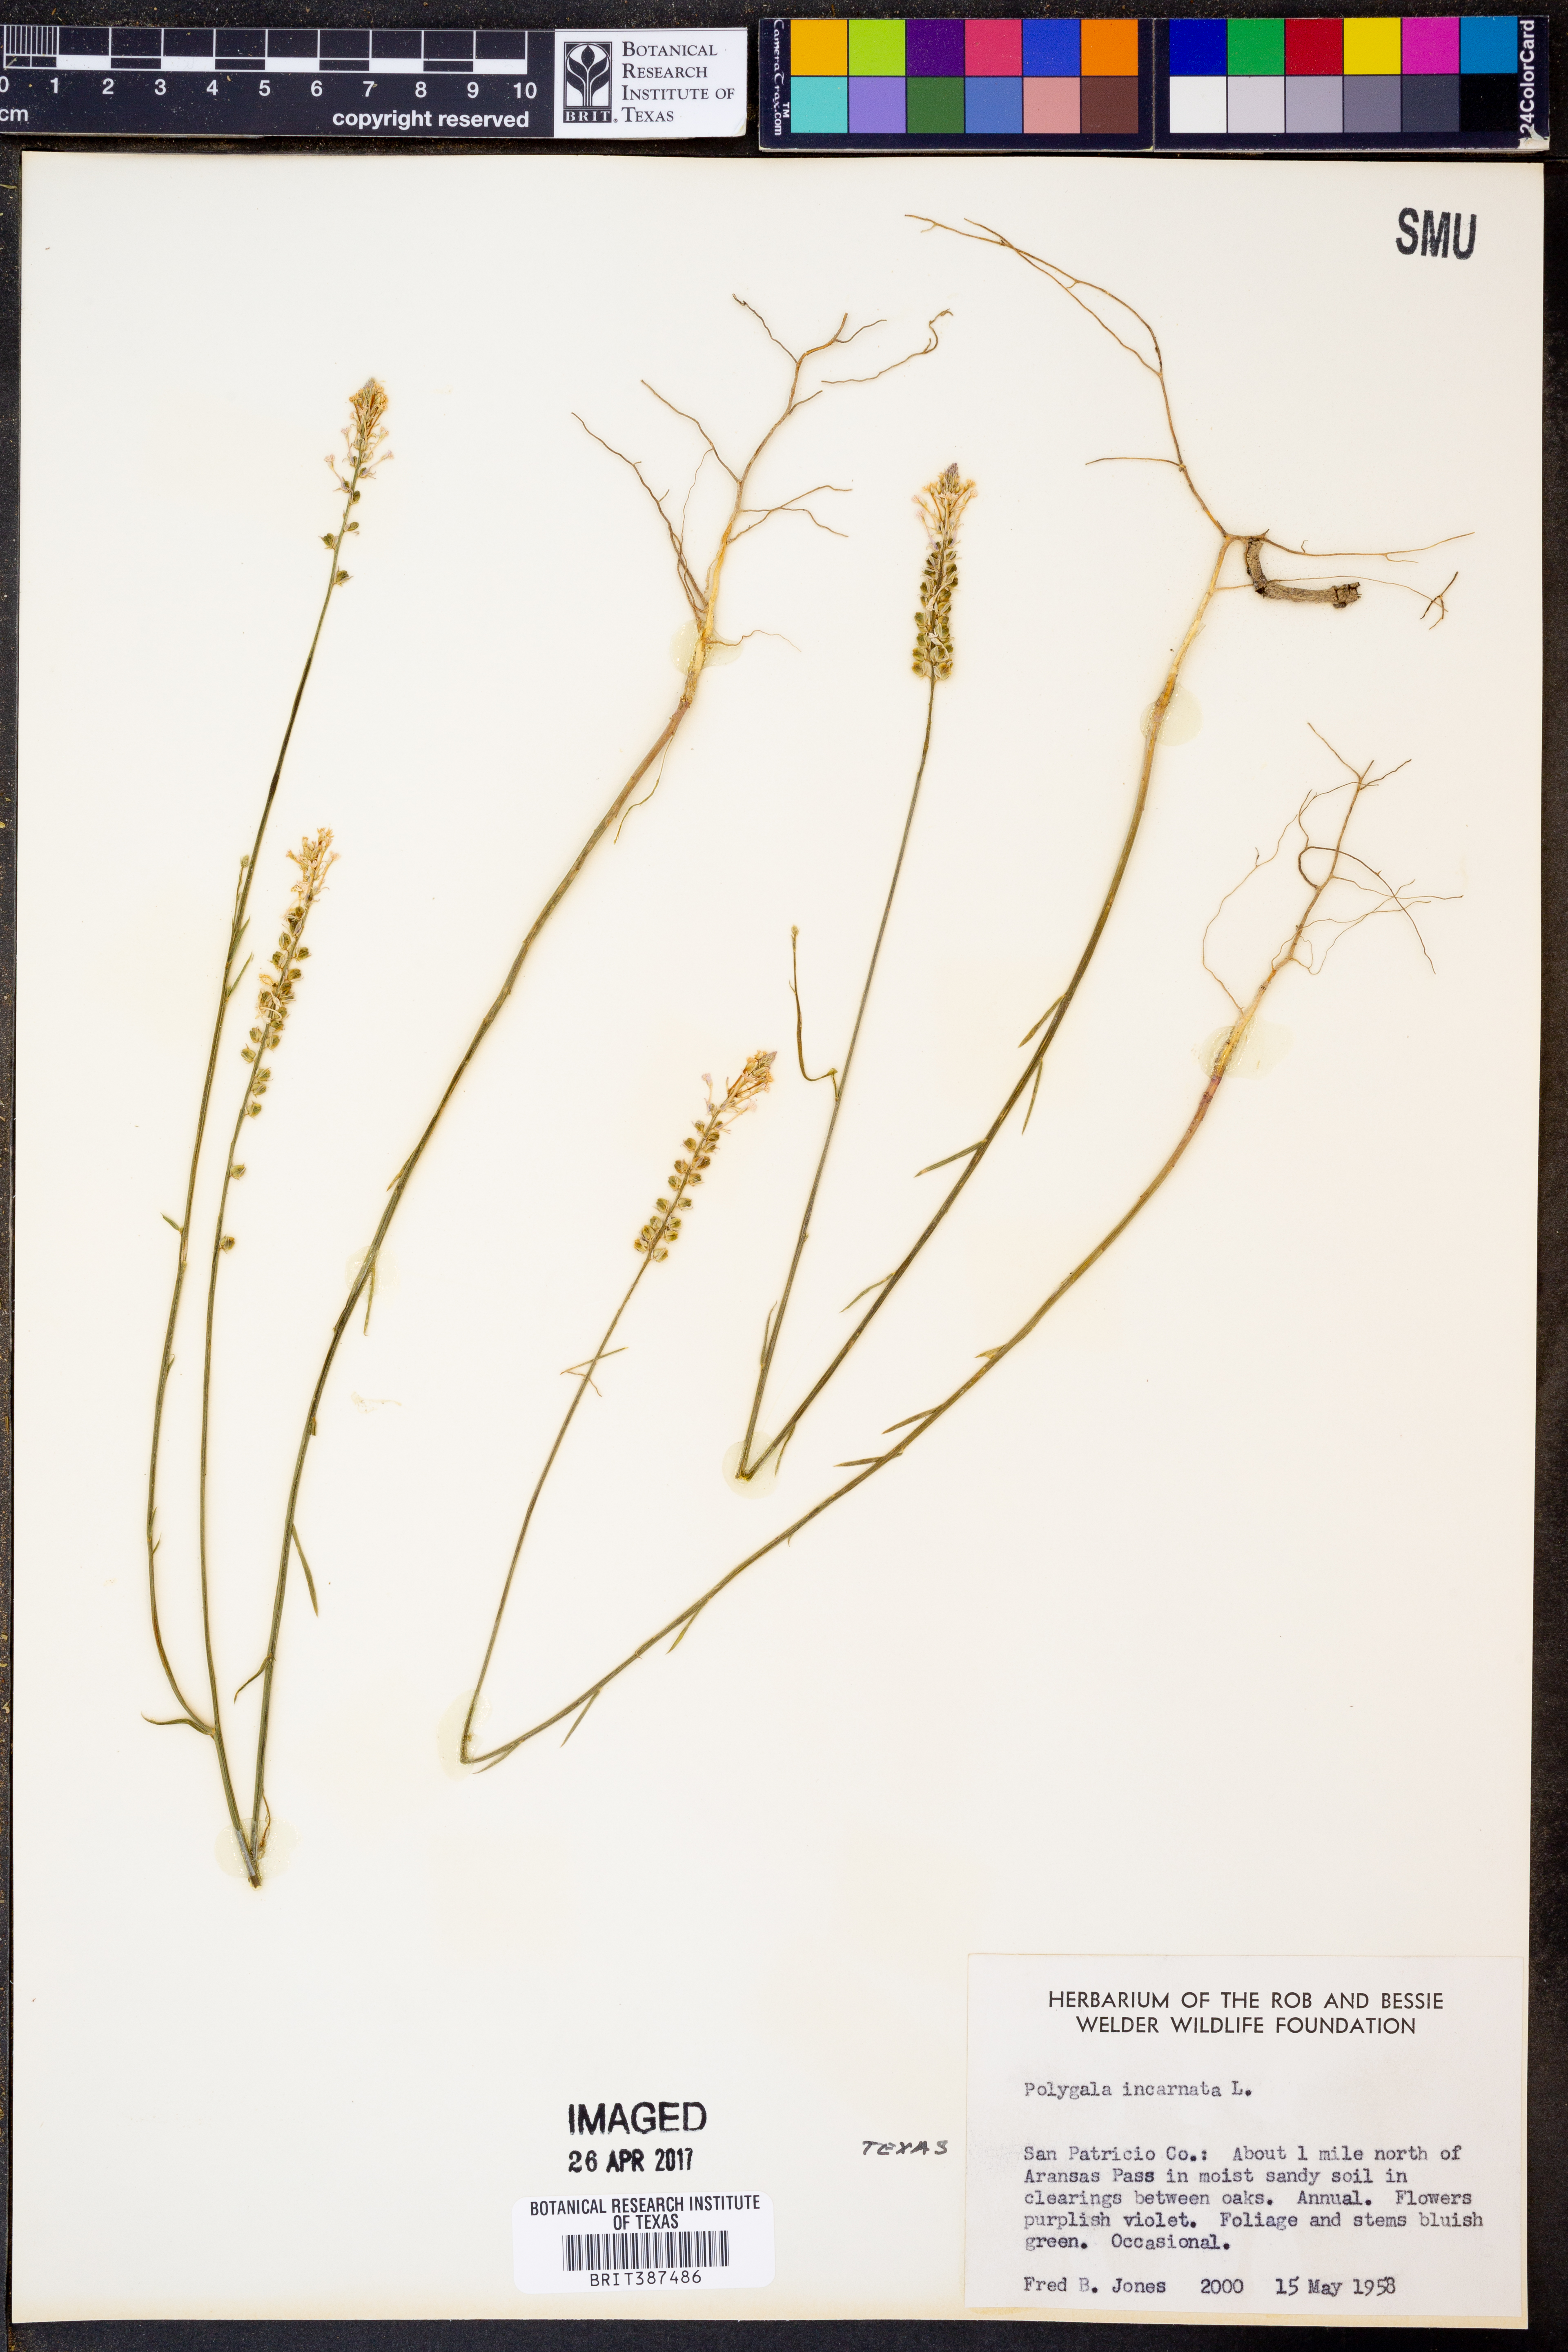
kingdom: Plantae
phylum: Tracheophyta
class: Magnoliopsida
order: Fabales
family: Polygalaceae
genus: Polygala
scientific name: Polygala incarnata
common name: Pink milkwort
